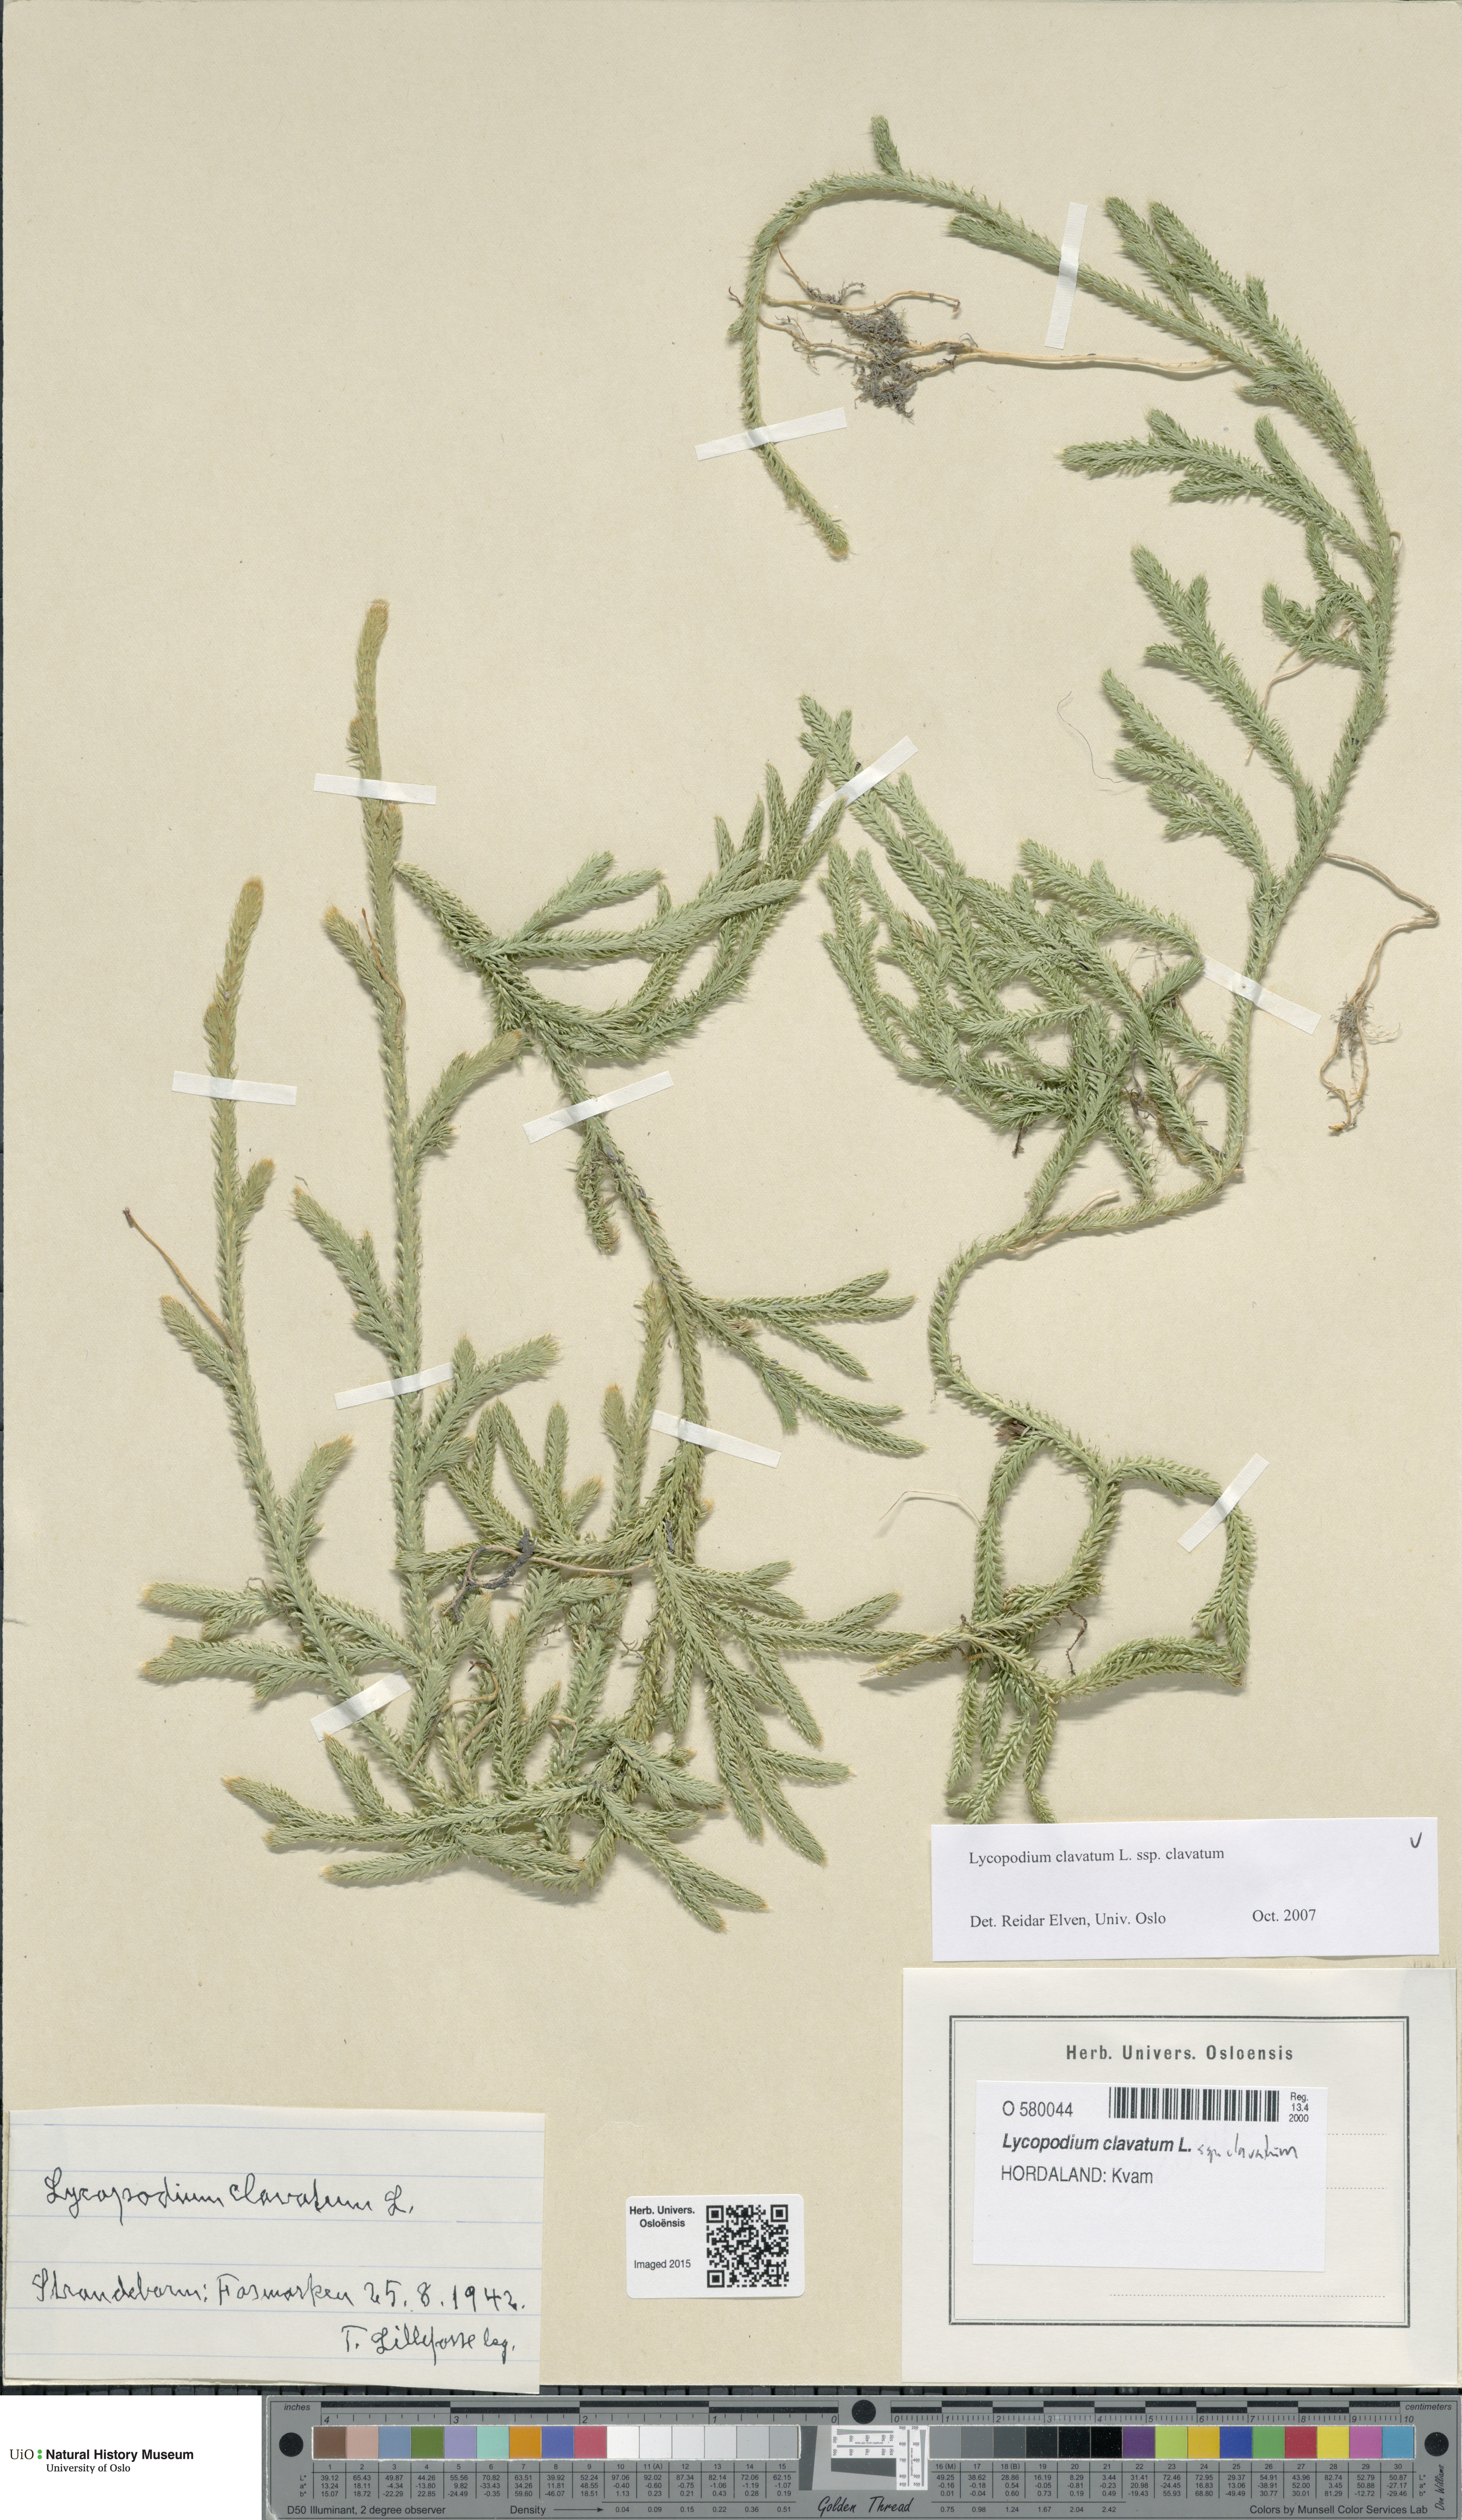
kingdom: Plantae
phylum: Tracheophyta
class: Lycopodiopsida
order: Lycopodiales
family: Lycopodiaceae
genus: Lycopodium
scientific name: Lycopodium clavatum
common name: Stag's-horn clubmoss
